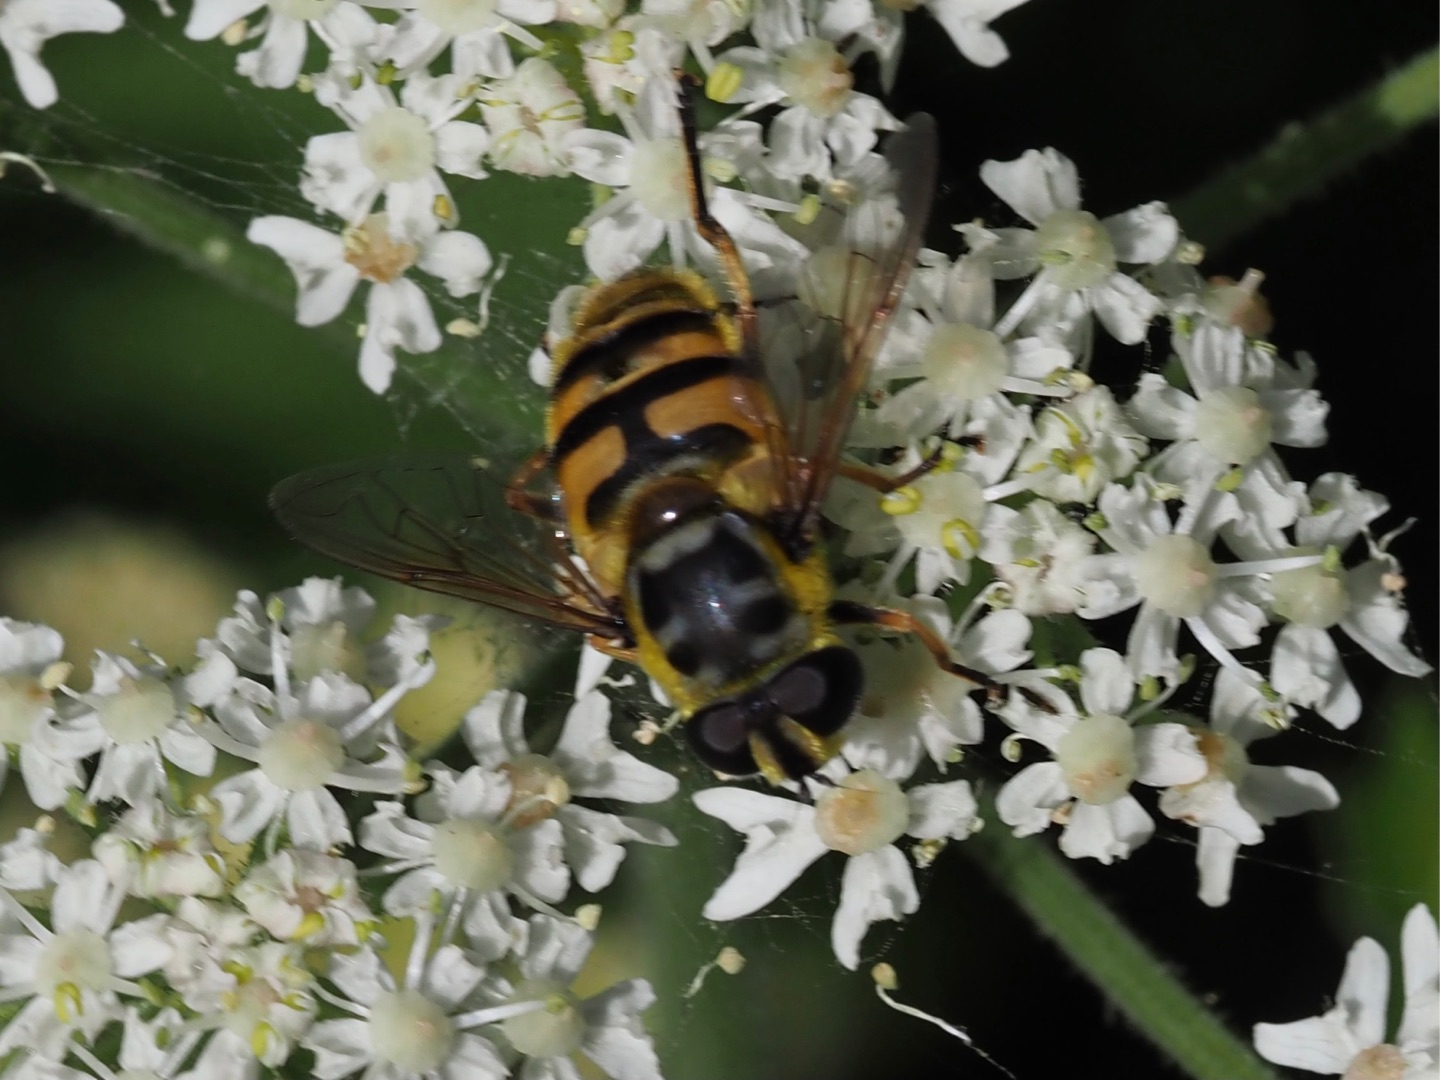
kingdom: Animalia
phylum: Arthropoda
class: Insecta
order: Diptera
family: Syrphidae
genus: Myathropa
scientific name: Myathropa florea
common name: Dødningehoved-svirreflue
